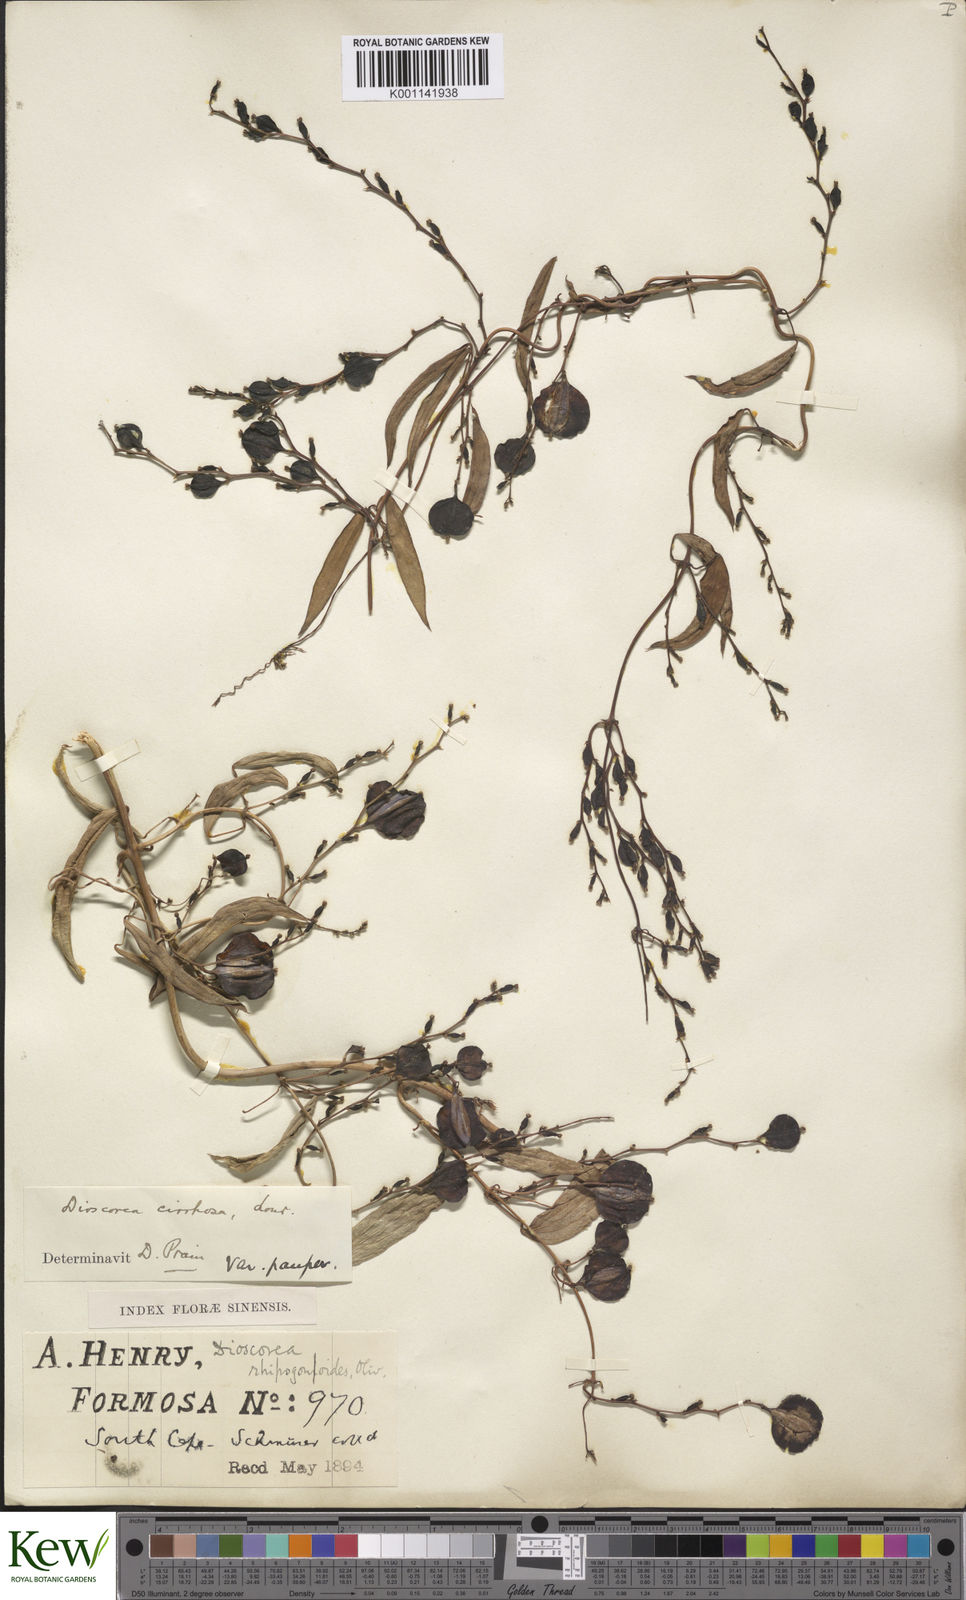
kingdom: Plantae
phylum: Tracheophyta
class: Liliopsida
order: Dioscoreales
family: Dioscoreaceae
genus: Dioscorea
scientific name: Dioscorea cirrhosa
